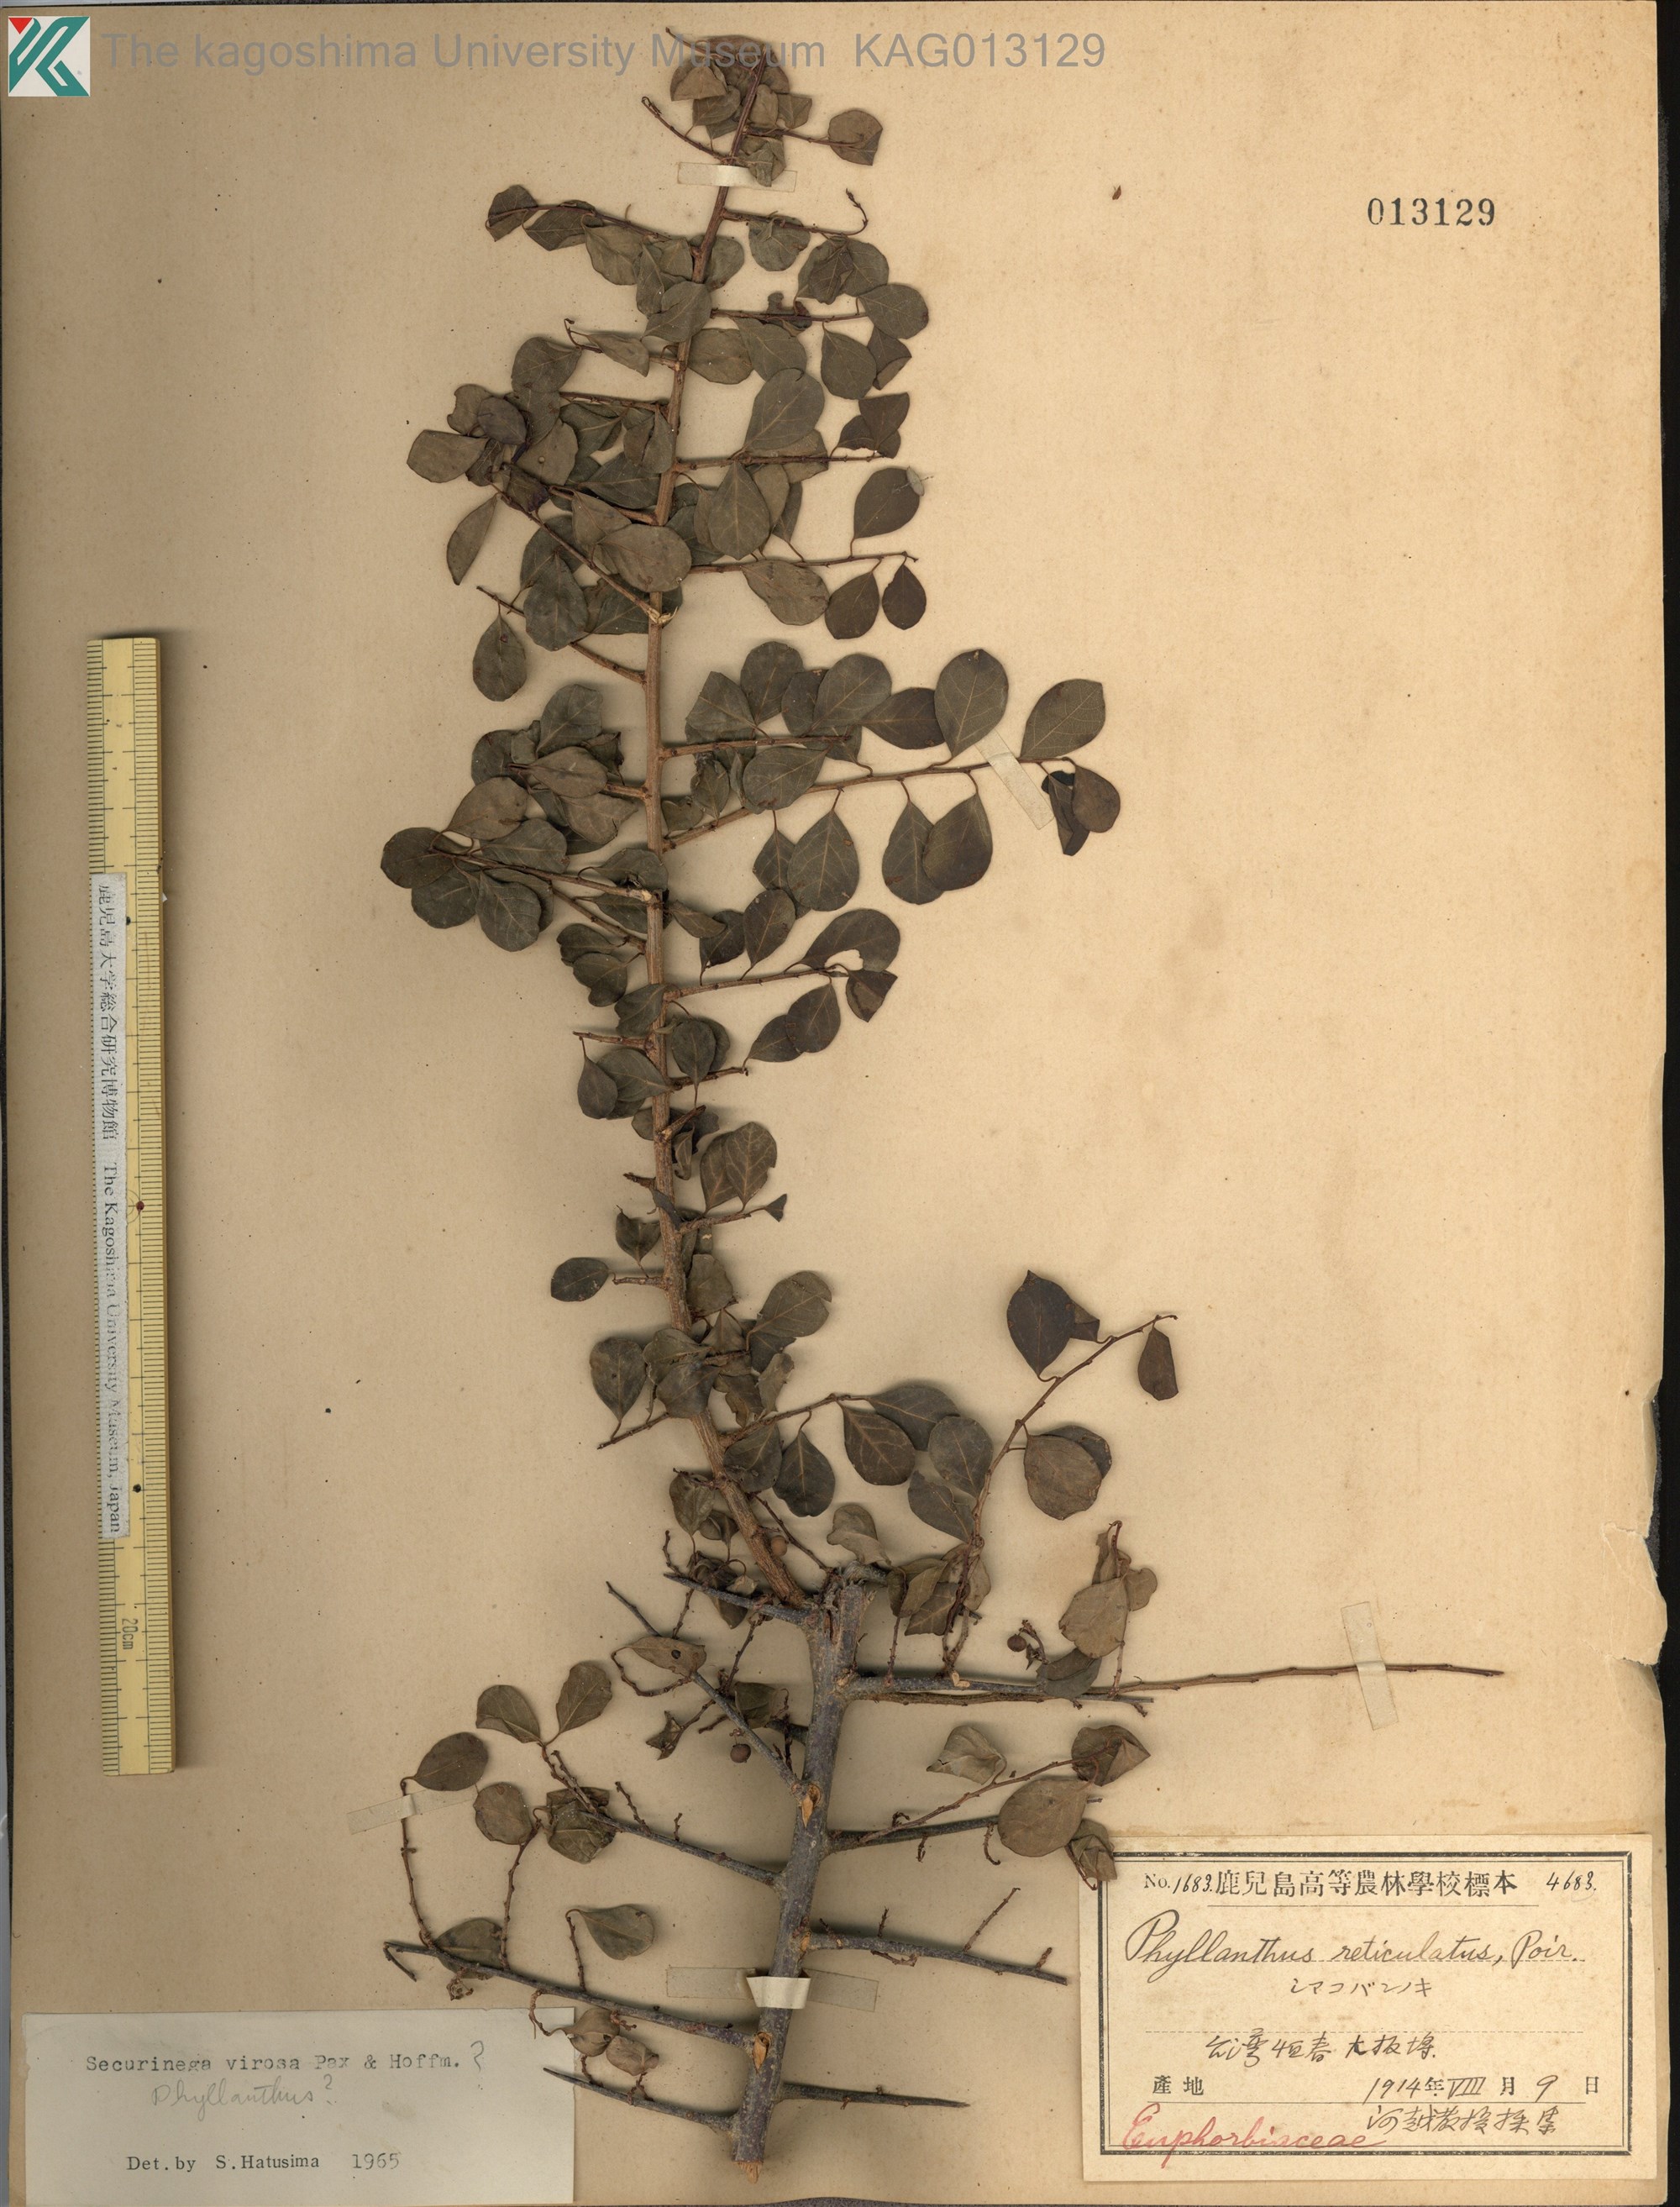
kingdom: Plantae
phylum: Tracheophyta
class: Magnoliopsida
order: Malpighiales
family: Phyllanthaceae
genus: Flueggea
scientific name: Flueggea virosa
